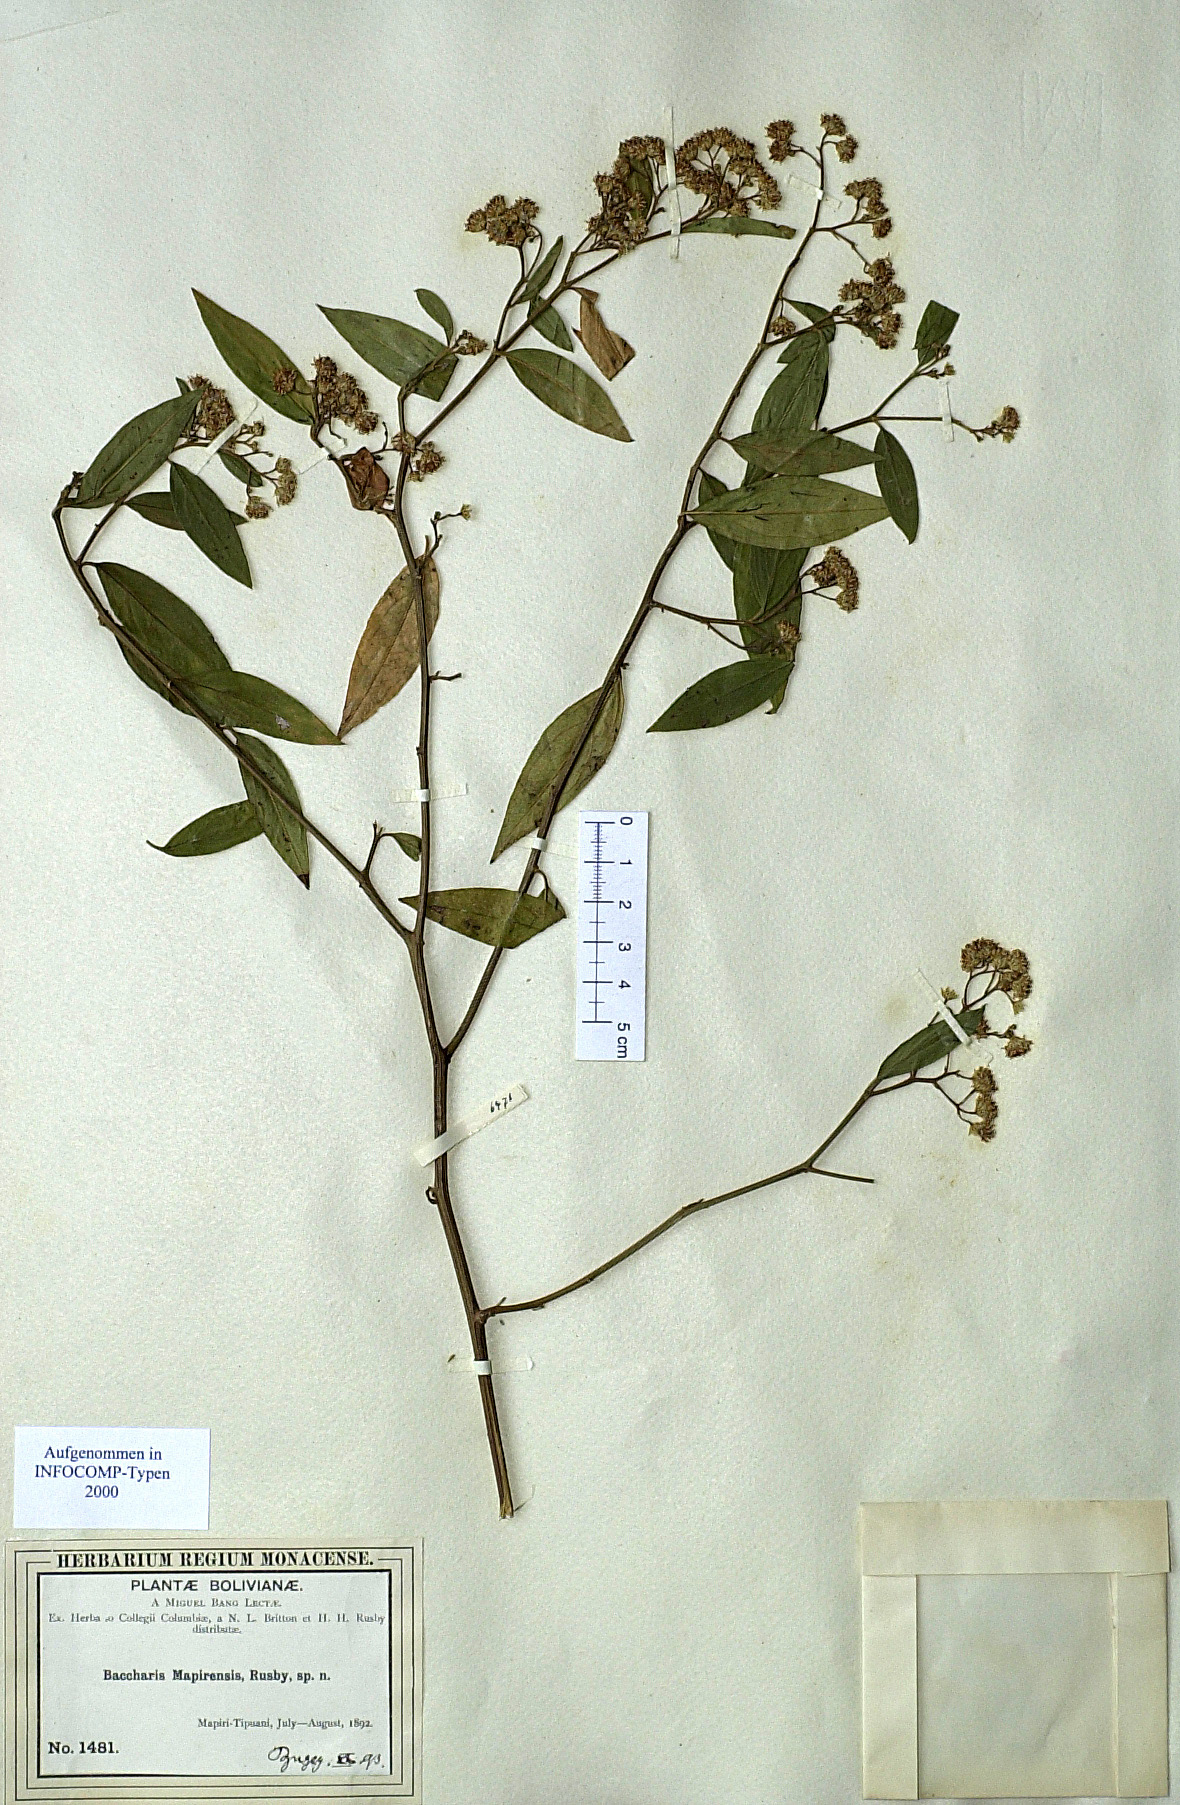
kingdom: Plantae
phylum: Tracheophyta
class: Magnoliopsida
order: Asterales
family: Asteraceae
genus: Baccharis
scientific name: Baccharis quitensis
